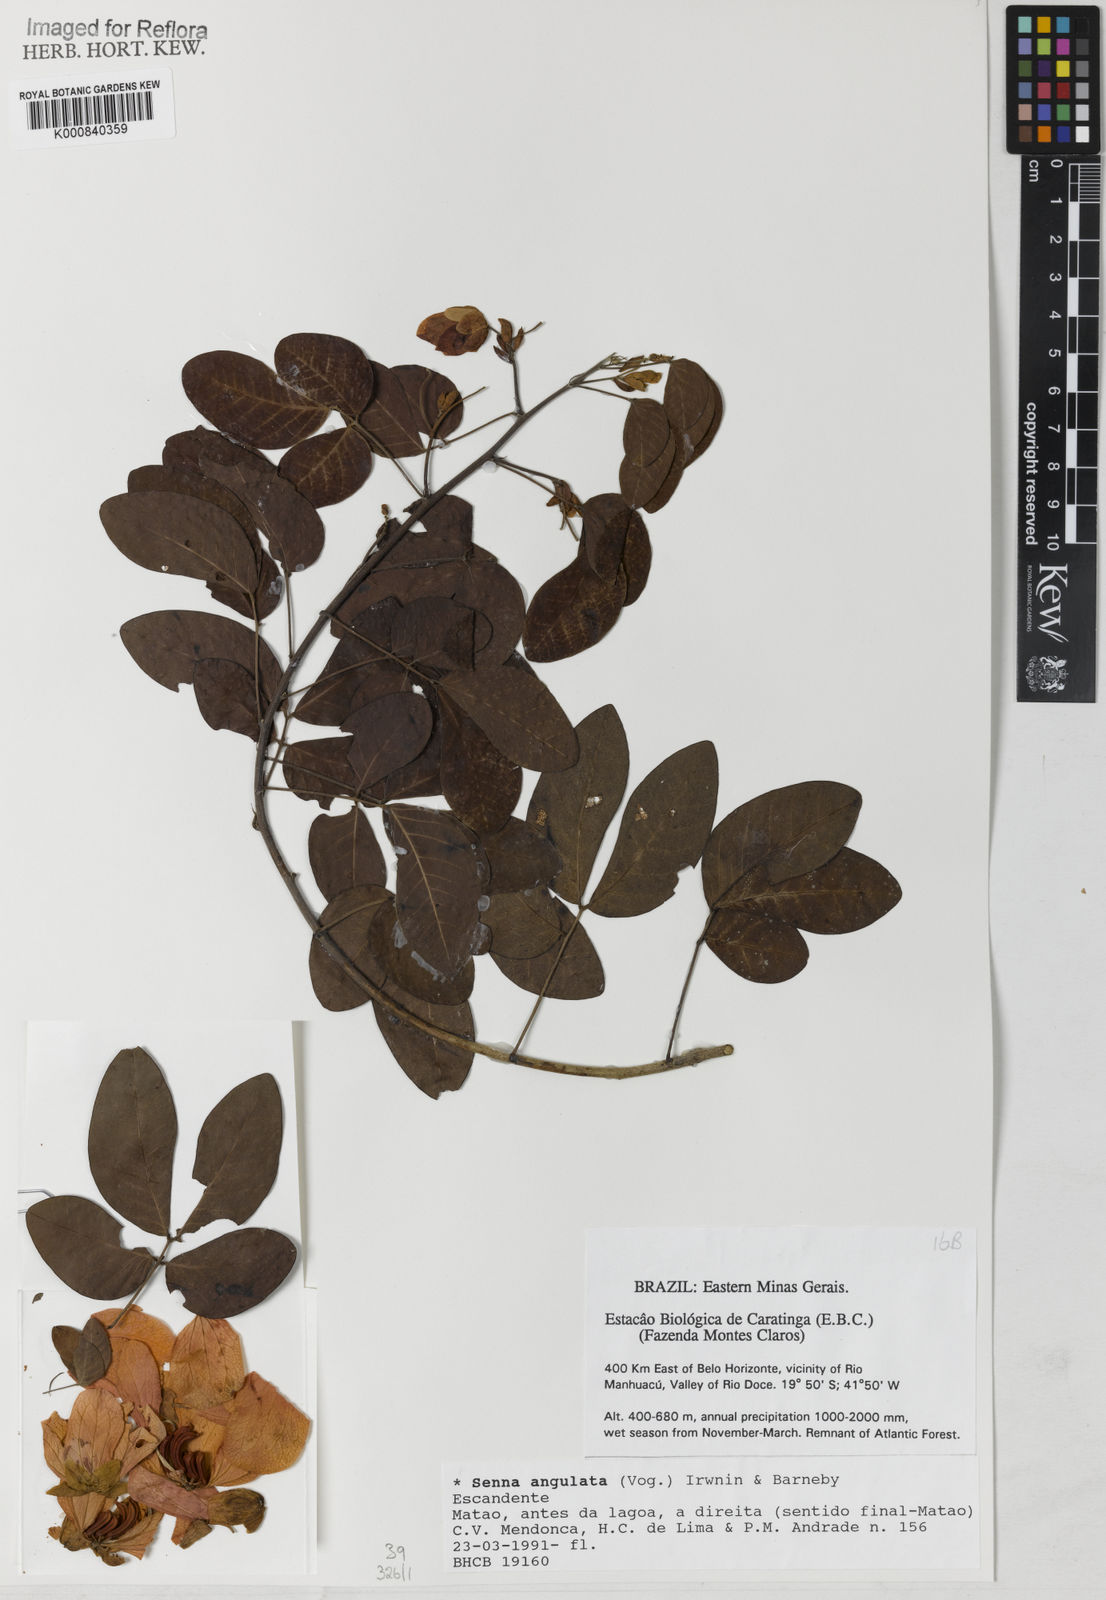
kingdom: Plantae
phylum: Tracheophyta
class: Magnoliopsida
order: Fabales
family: Fabaceae
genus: Senna
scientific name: Senna angulata
